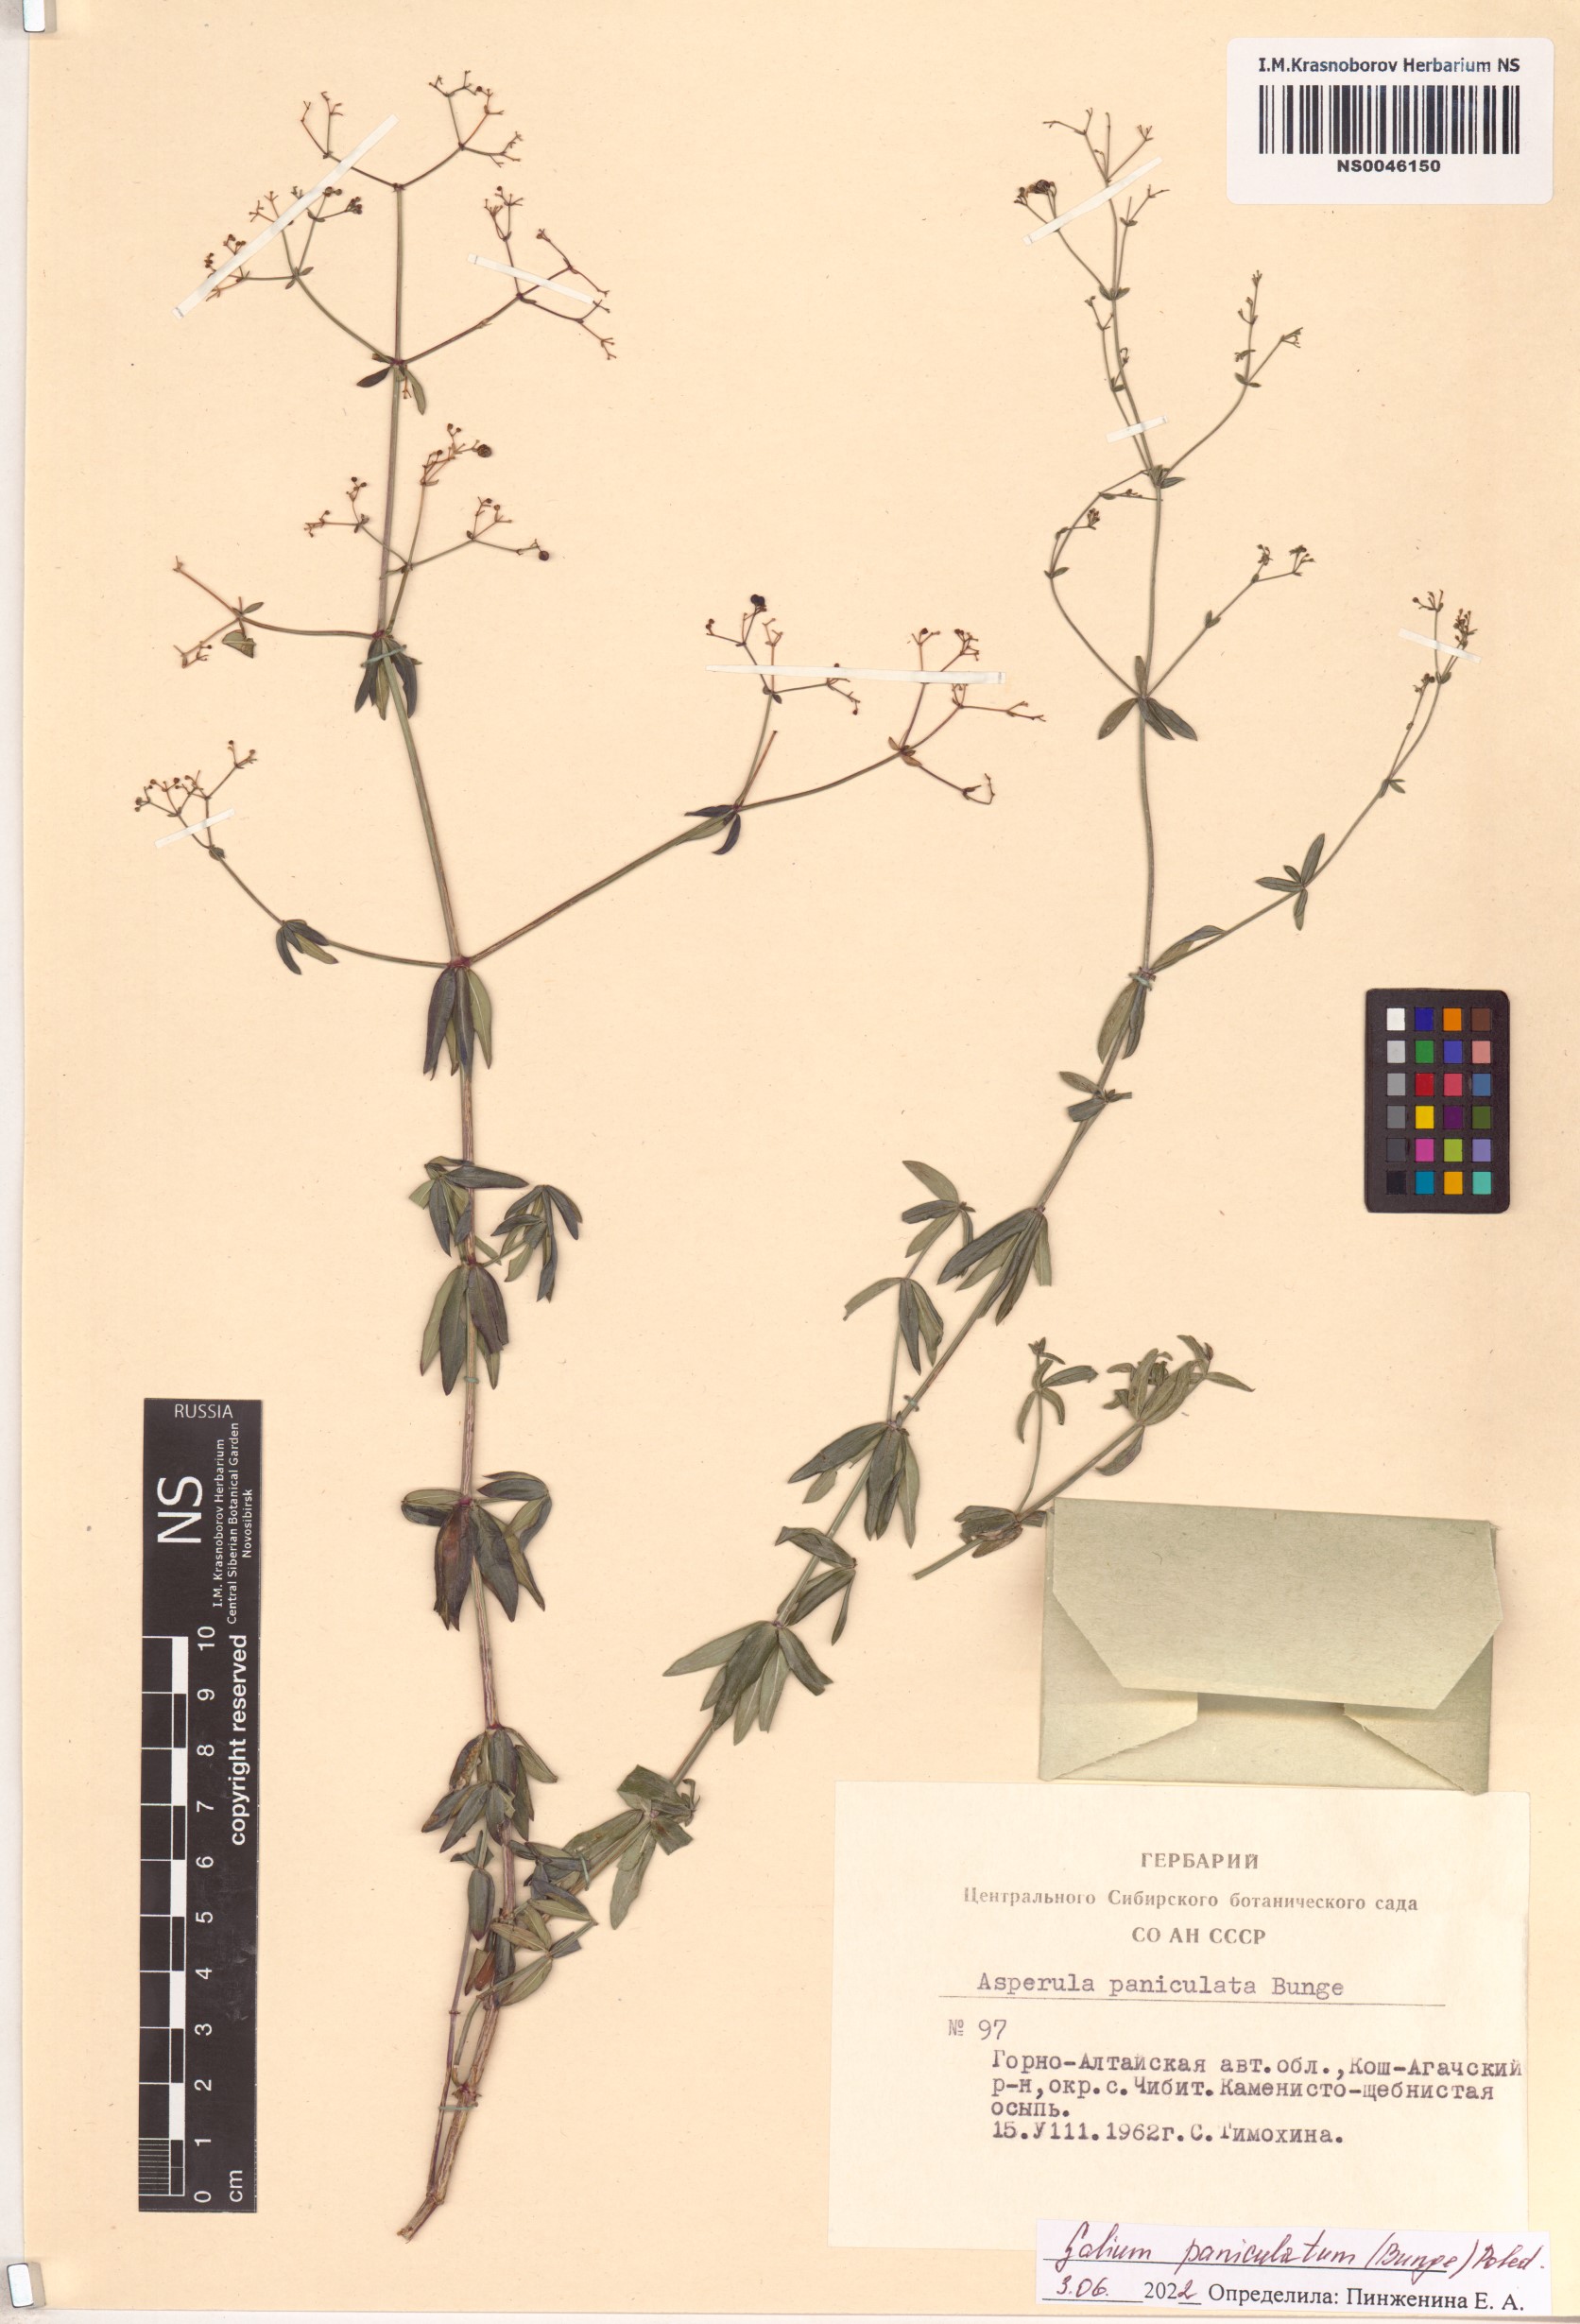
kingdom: Plantae
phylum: Tracheophyta
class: Magnoliopsida
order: Gentianales
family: Rubiaceae
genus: Galium
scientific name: Galium paniculatum
